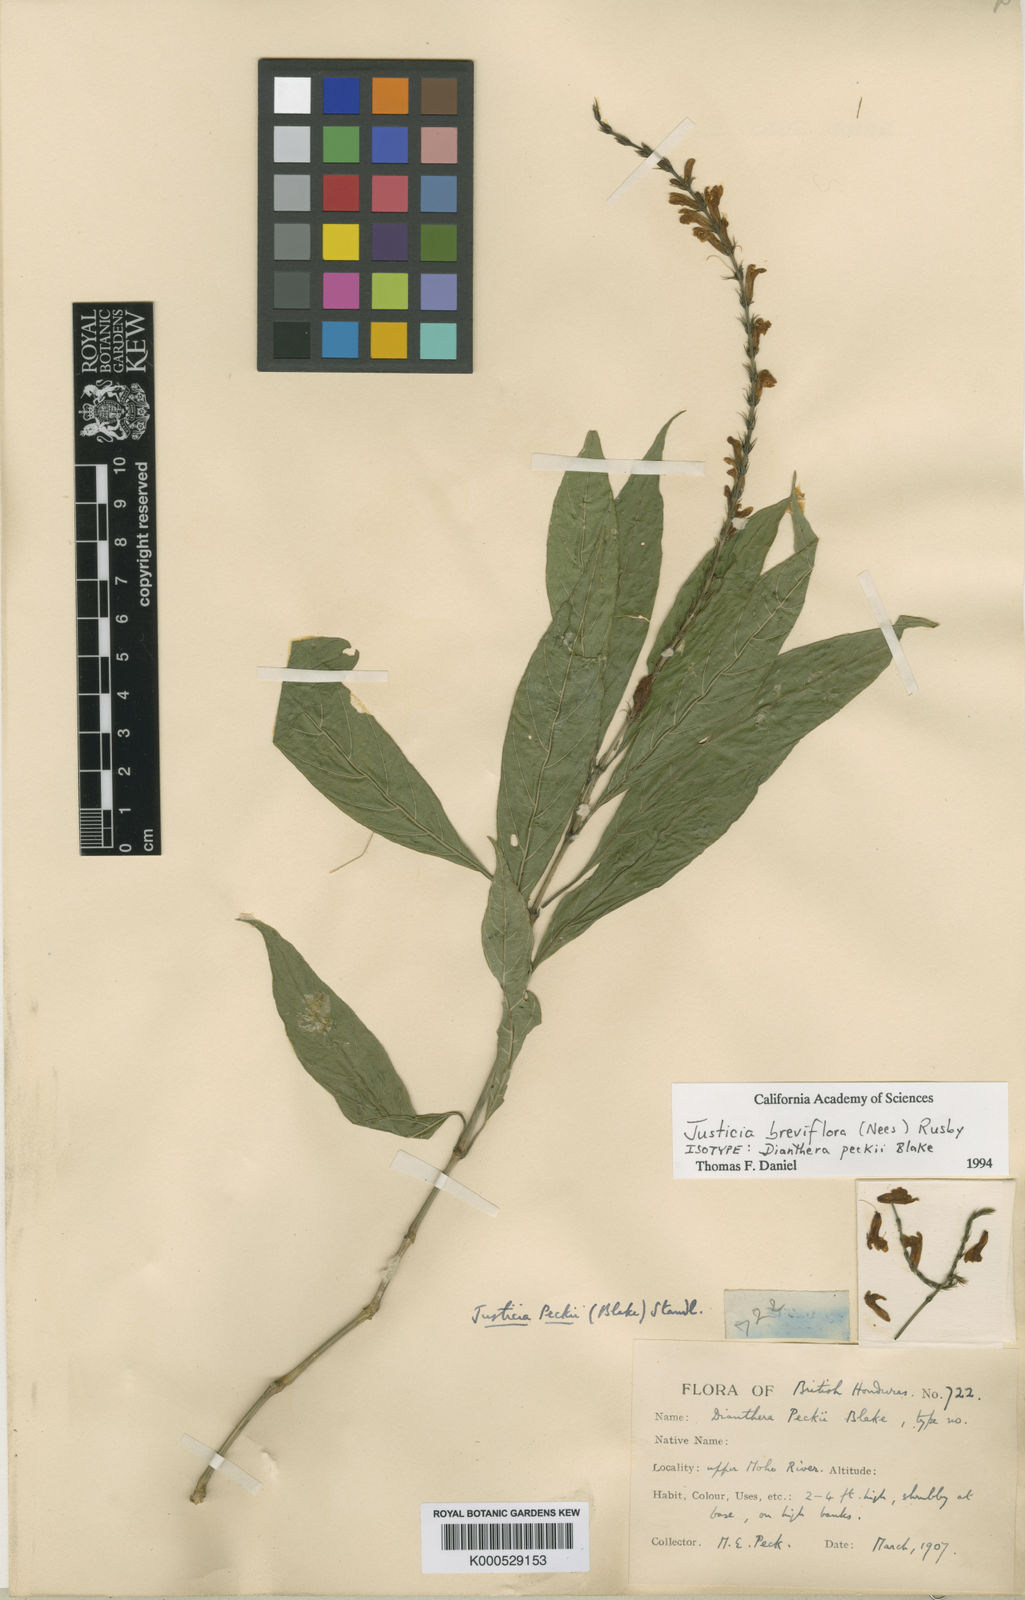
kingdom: Plantae
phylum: Tracheophyta
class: Magnoliopsida
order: Lamiales
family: Acanthaceae
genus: Dianthera
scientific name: Dianthera breviflora
